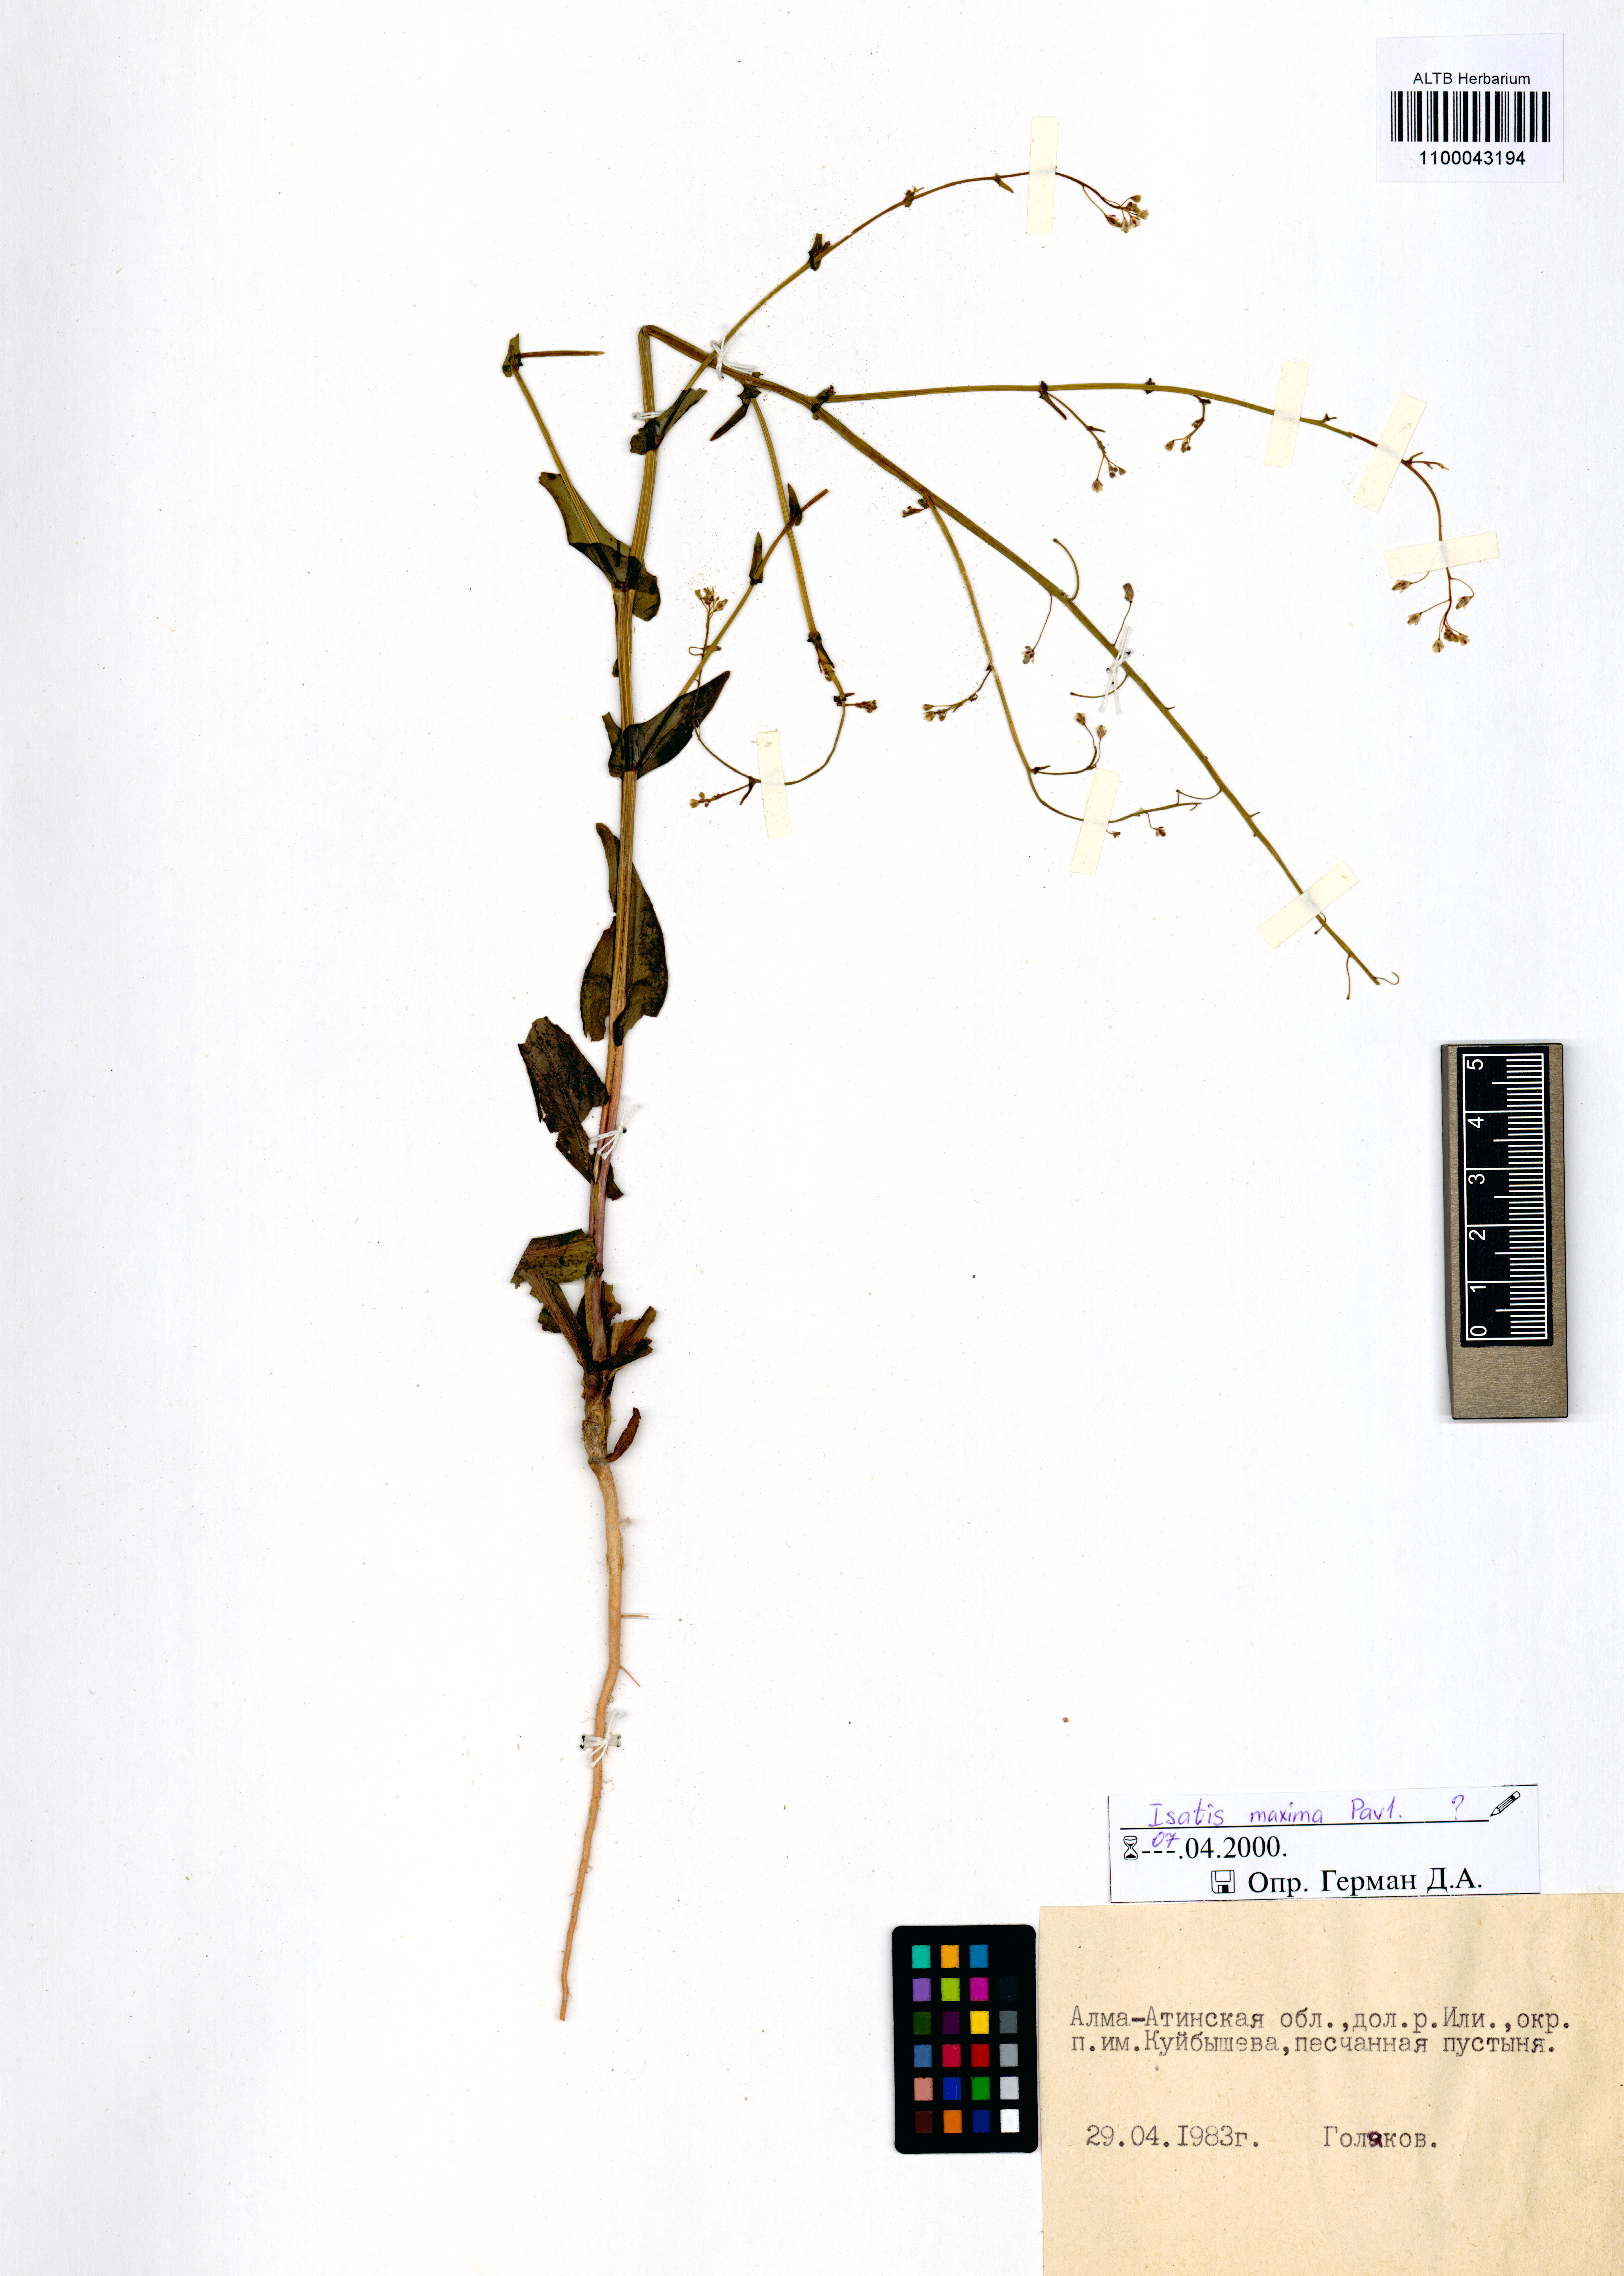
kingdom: Plantae
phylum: Tracheophyta
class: Magnoliopsida
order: Brassicales
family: Brassicaceae
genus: Isatis
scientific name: Isatis maxima
